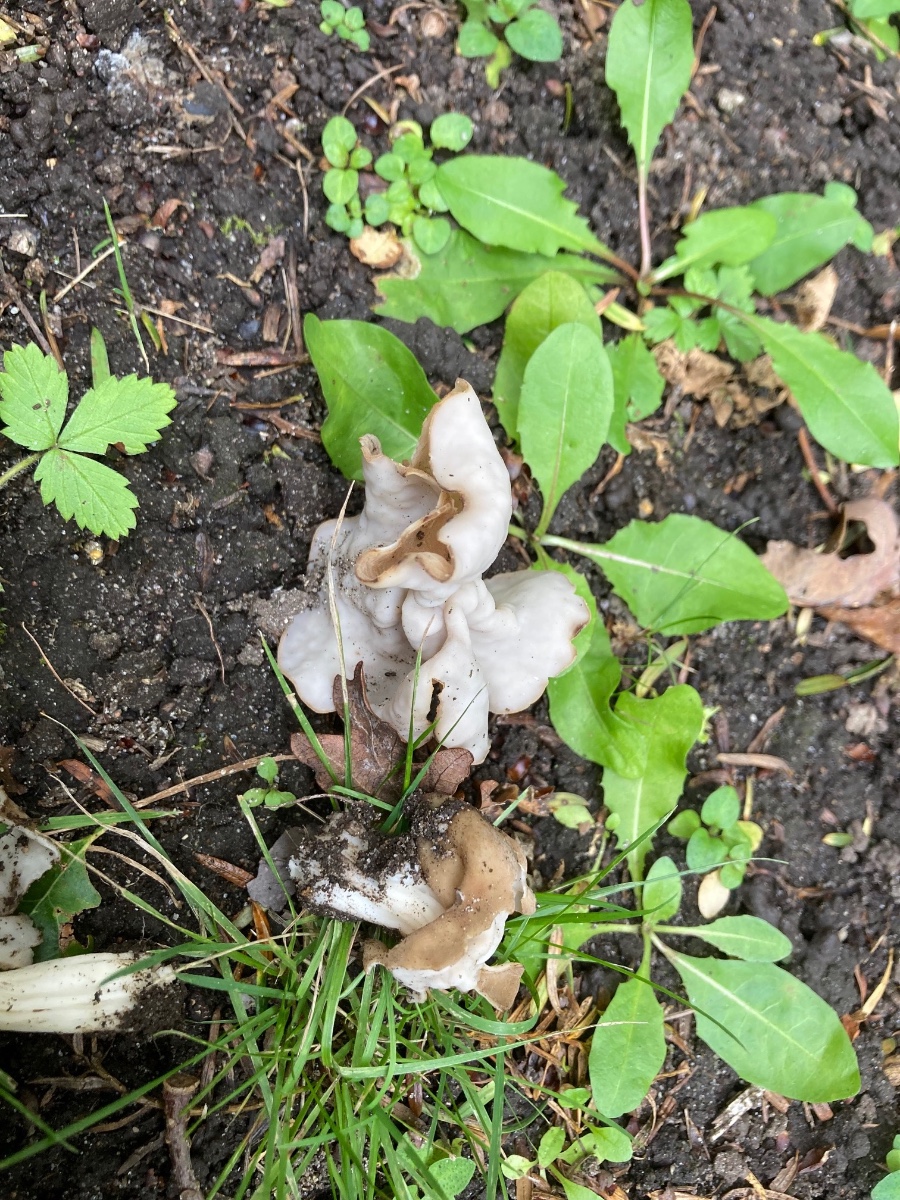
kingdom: Fungi
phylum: Ascomycota
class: Pezizomycetes
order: Pezizales
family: Helvellaceae
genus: Helvella
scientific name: Helvella crispa
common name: kruset foldhat
